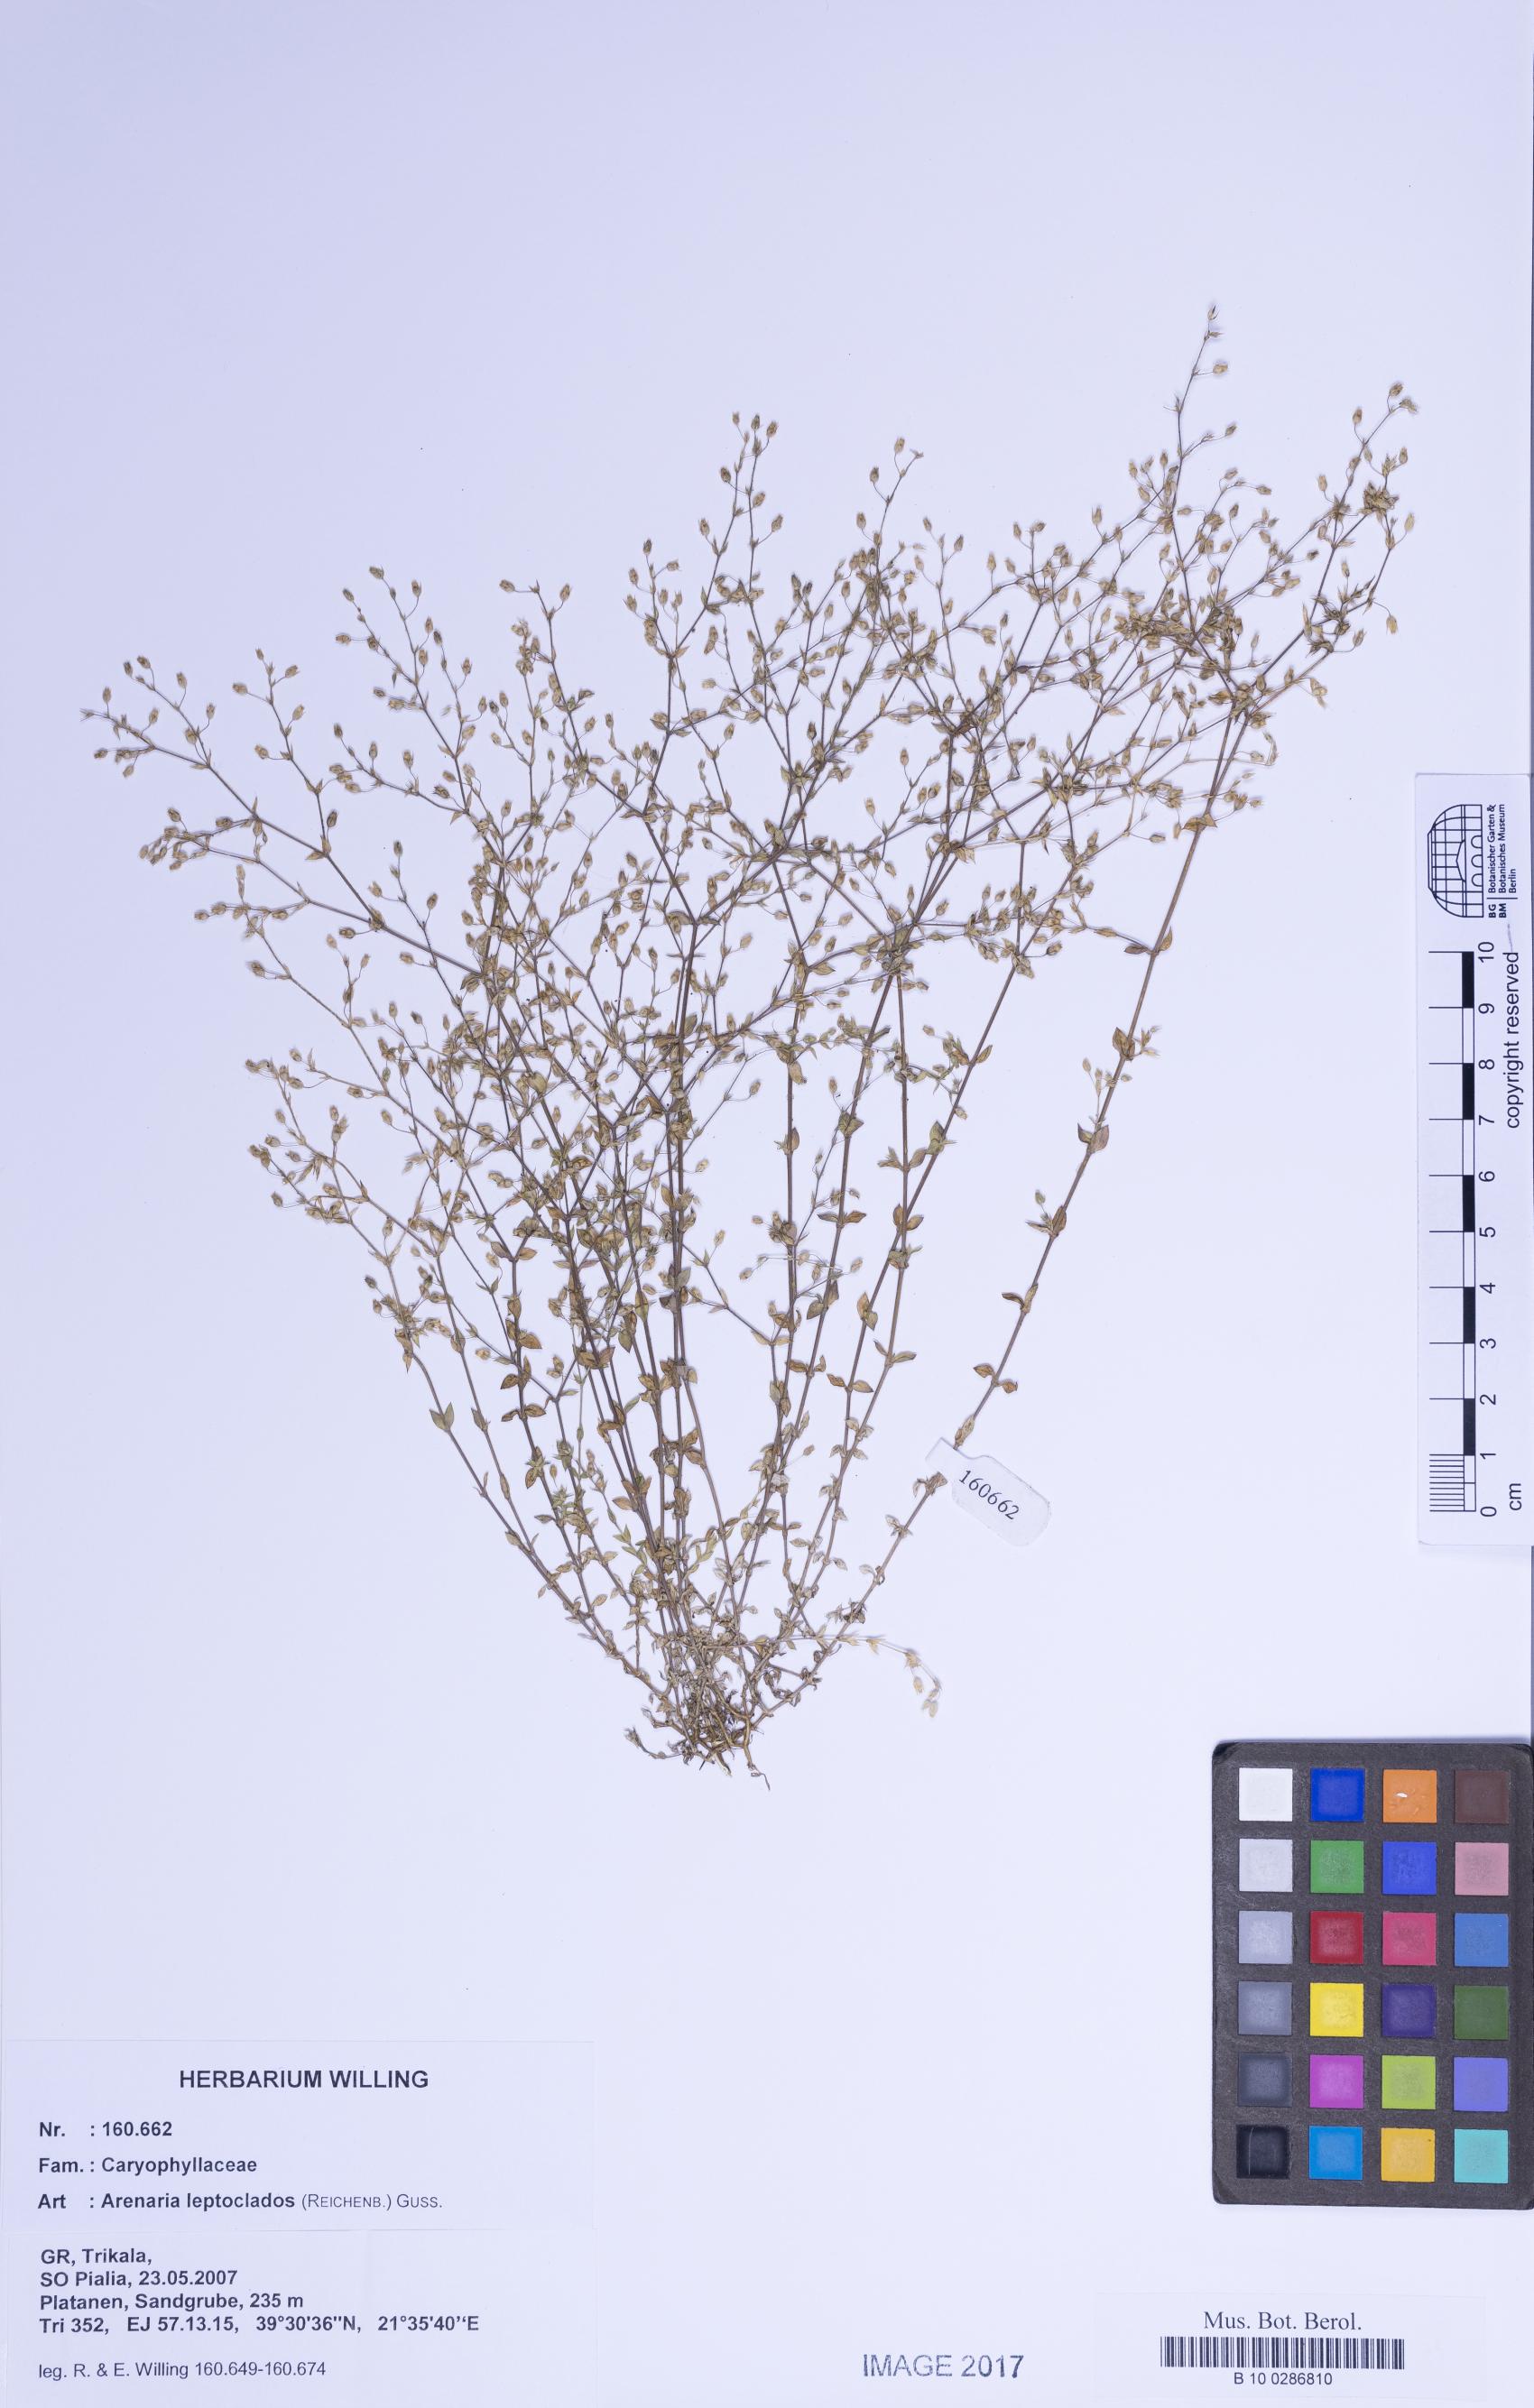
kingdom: Plantae
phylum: Tracheophyta
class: Magnoliopsida
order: Caryophyllales
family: Caryophyllaceae
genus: Arenaria
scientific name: Arenaria leptoclados
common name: Thyme-leaved sandwort
